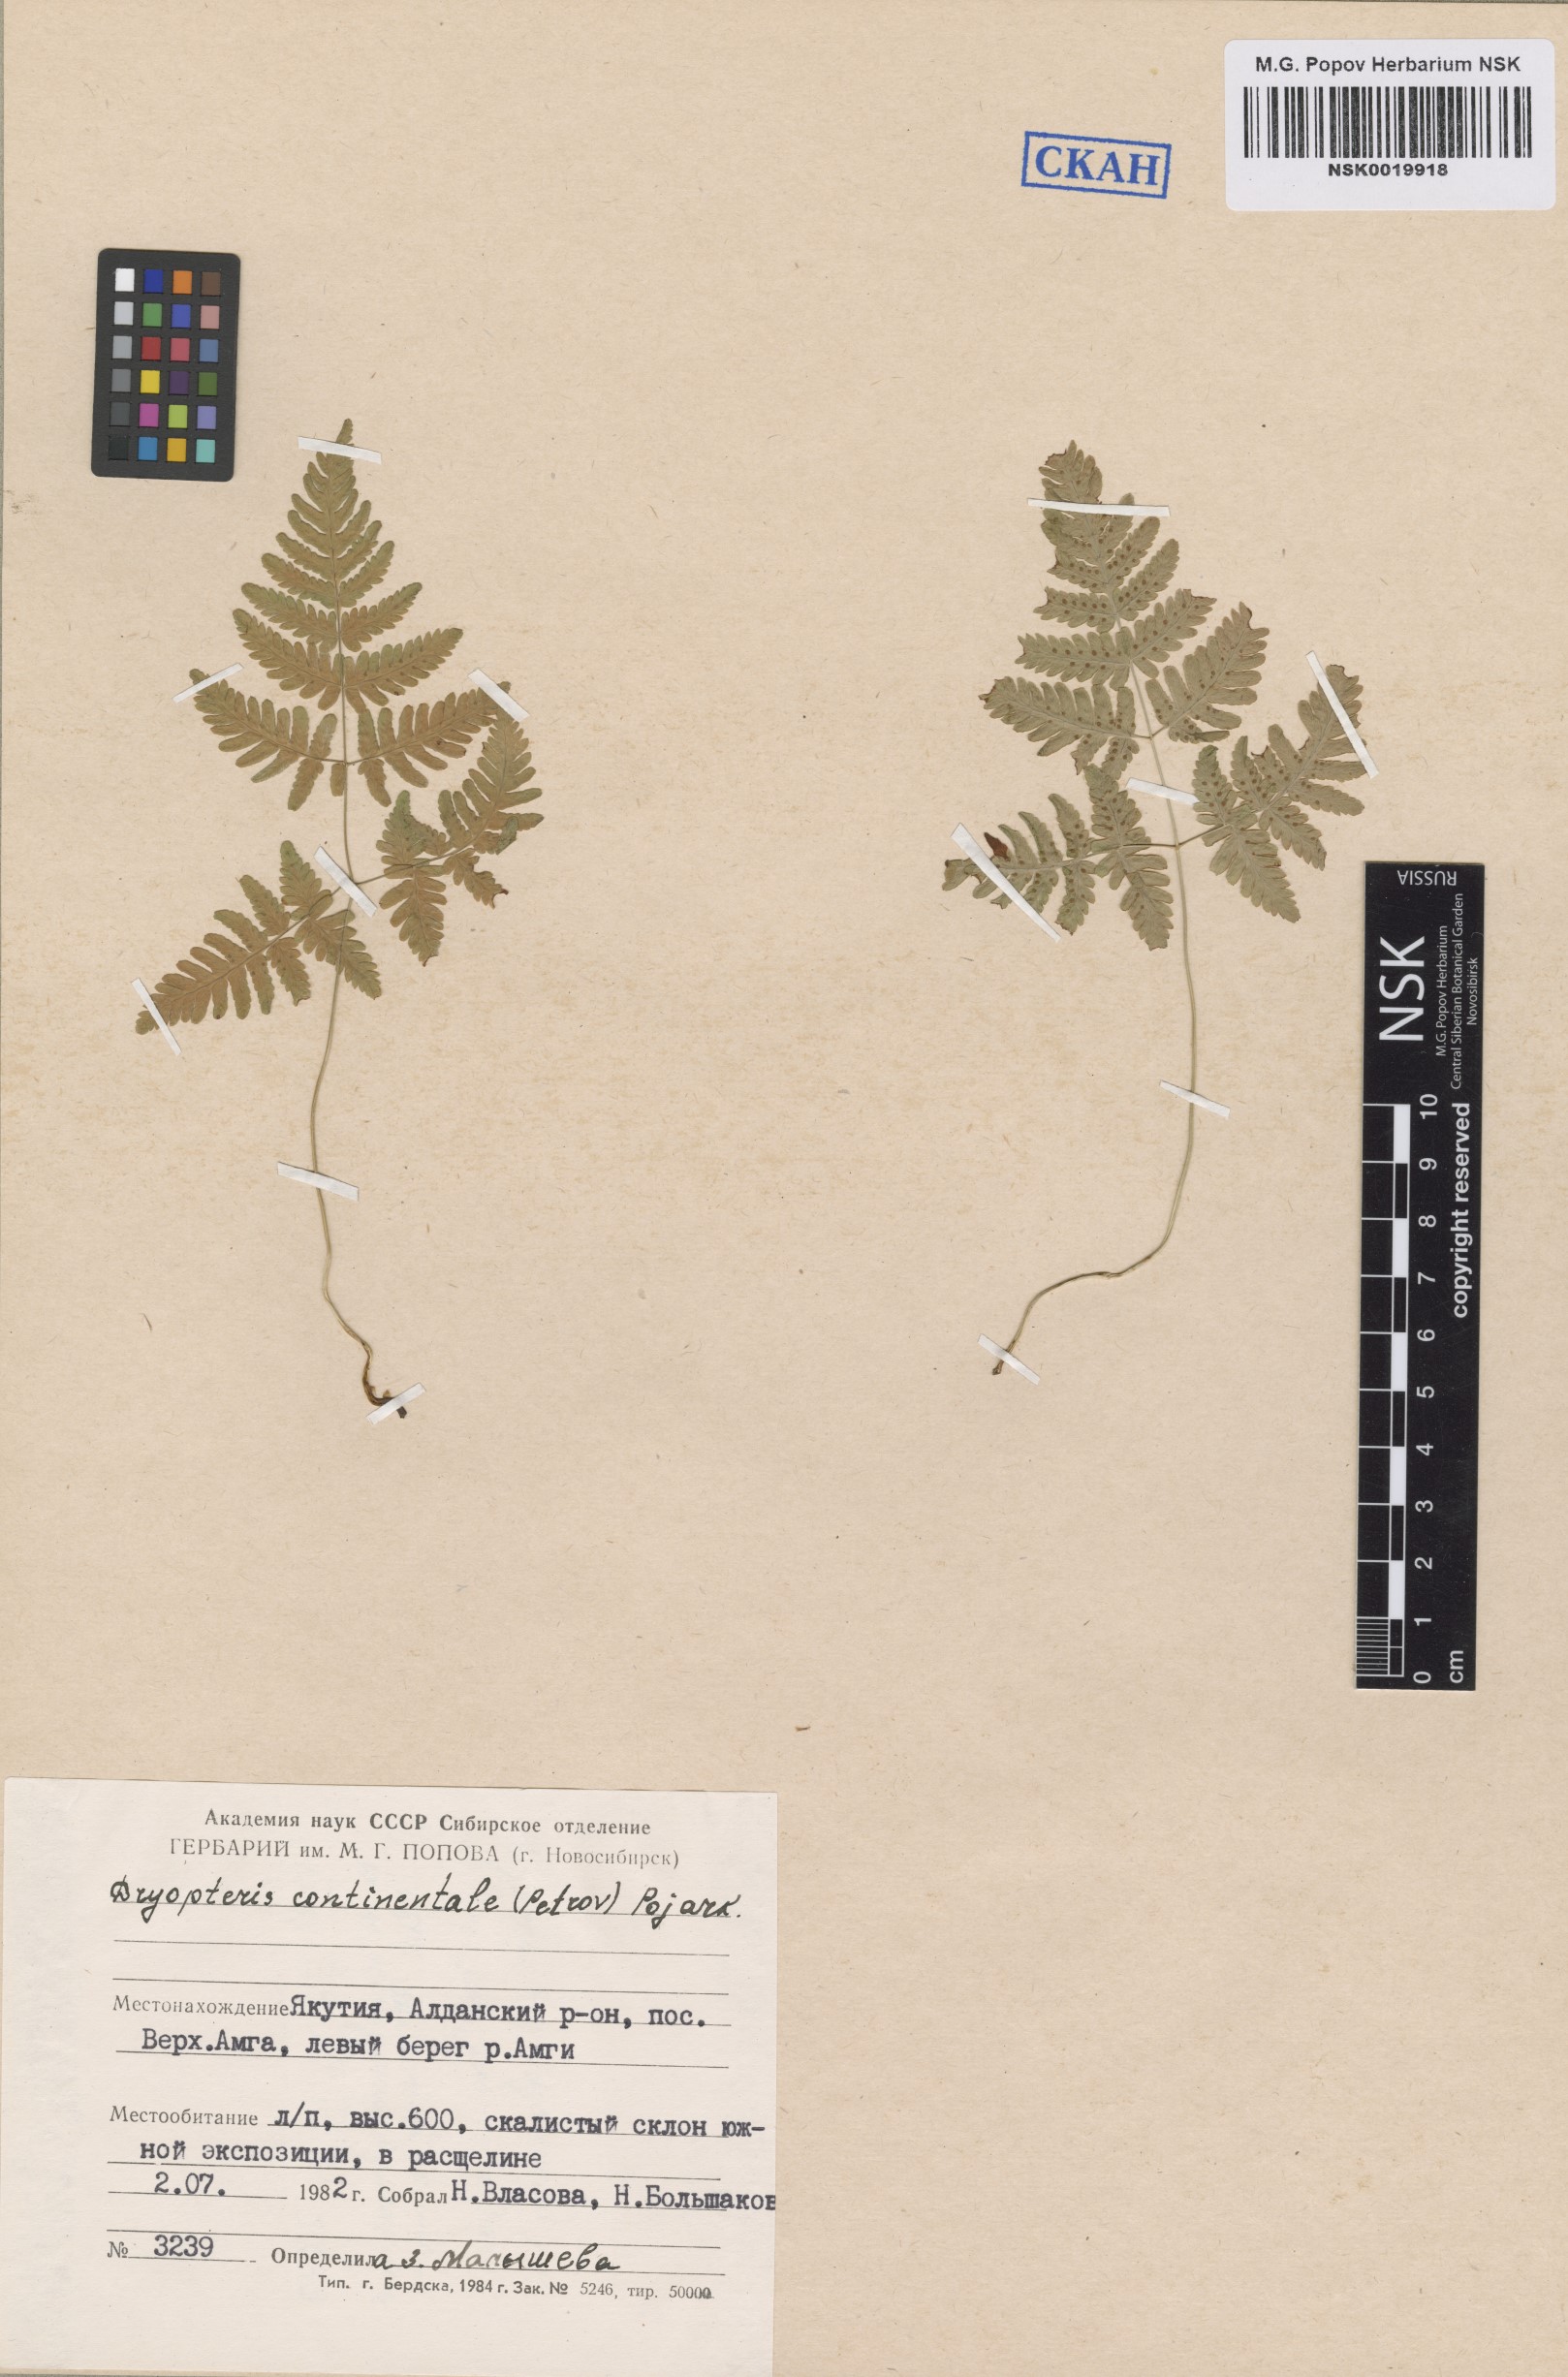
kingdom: Plantae
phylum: Tracheophyta
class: Polypodiopsida
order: Polypodiales
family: Cystopteridaceae
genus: Gymnocarpium
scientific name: Gymnocarpium continentale
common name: Asian oak fern
